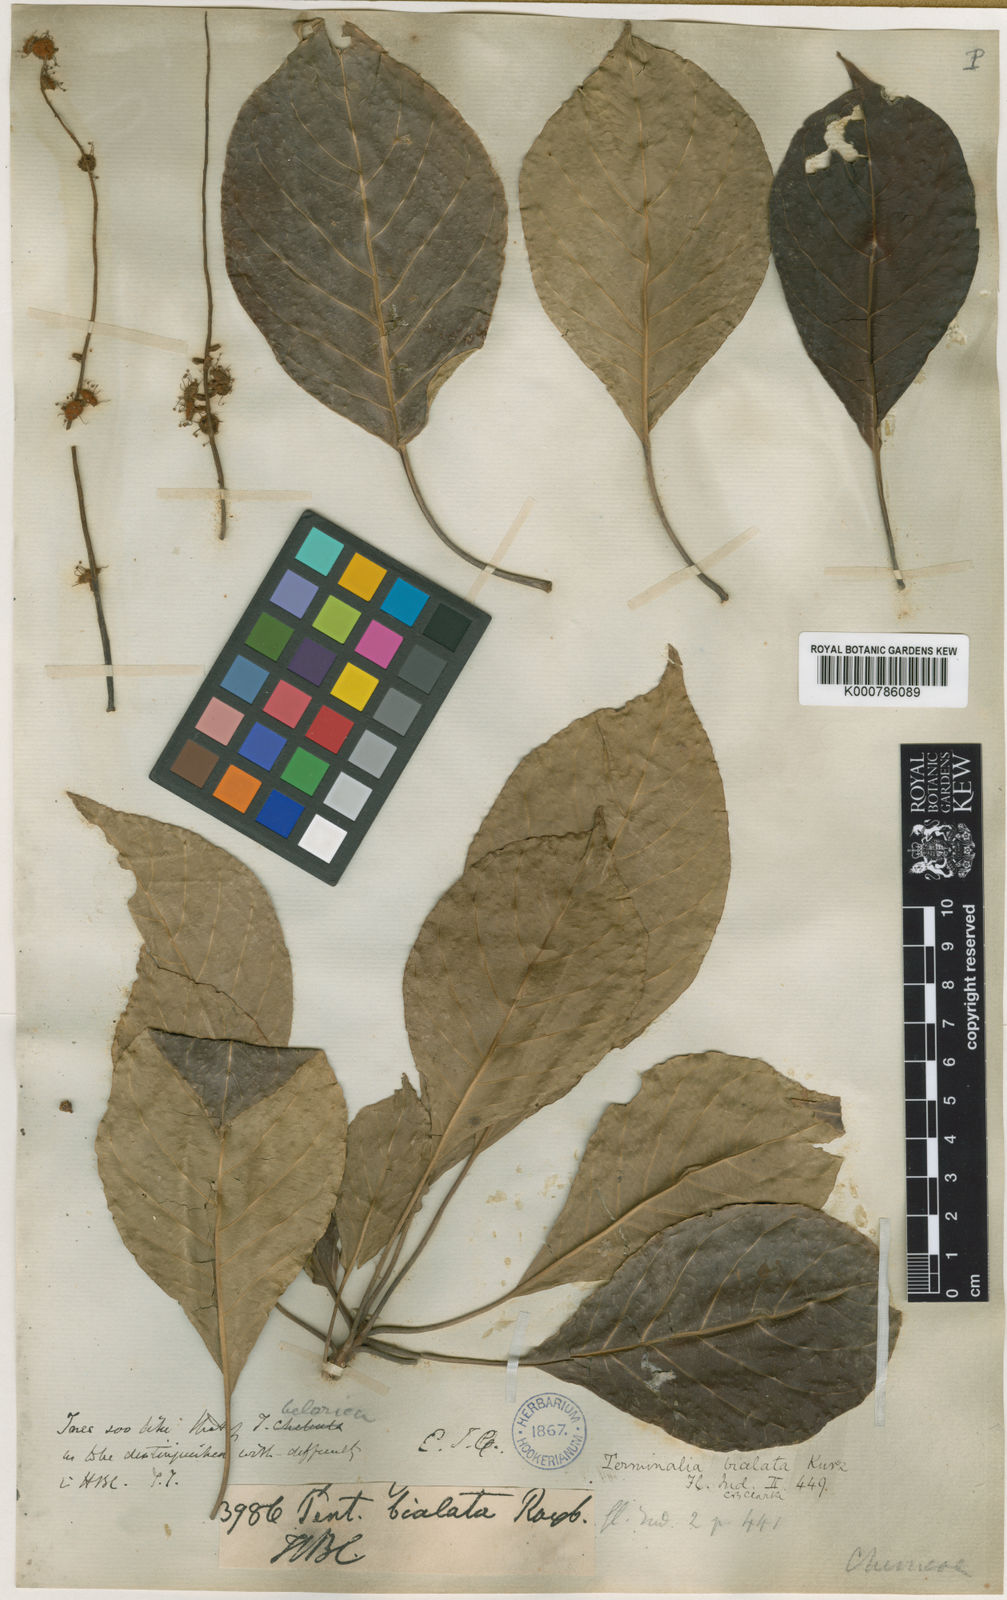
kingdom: Plantae
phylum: Tracheophyta
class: Magnoliopsida
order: Myrtales
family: Combretaceae
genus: Terminalia
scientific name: Terminalia
